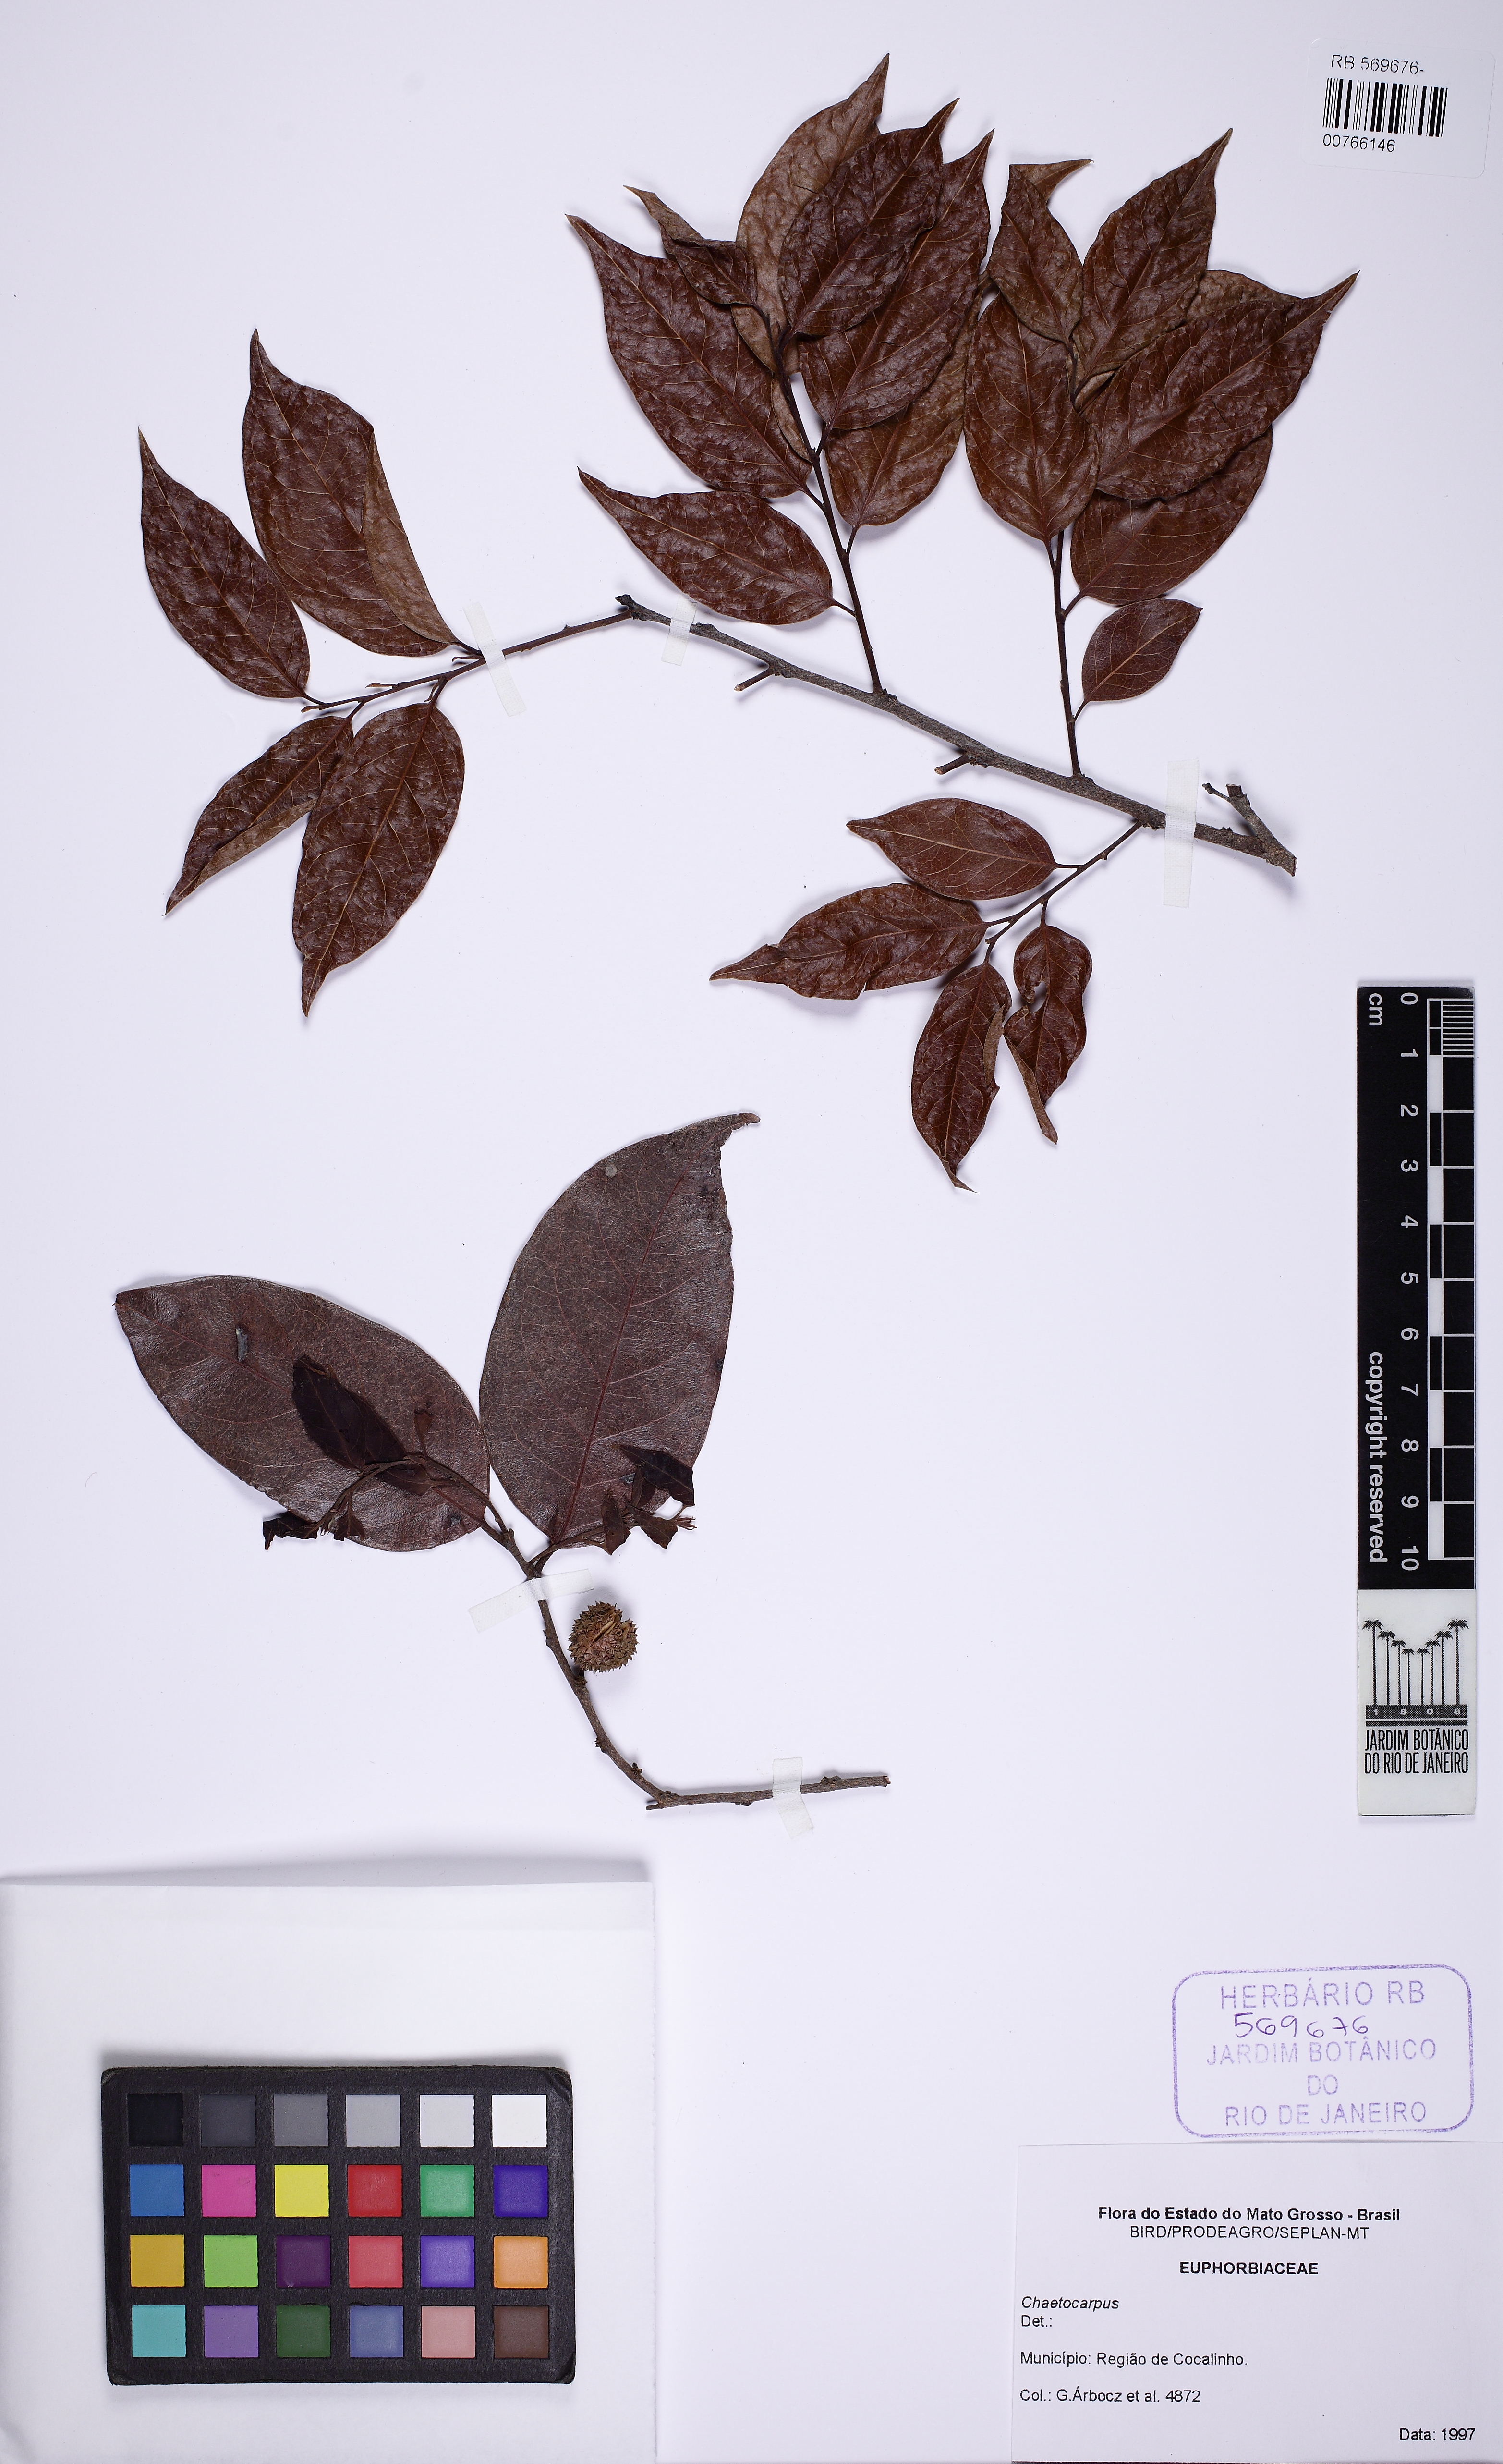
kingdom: Plantae
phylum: Tracheophyta
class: Magnoliopsida
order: Malpighiales
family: Peraceae
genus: Chaetocarpus
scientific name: Chaetocarpus echinocarpus
